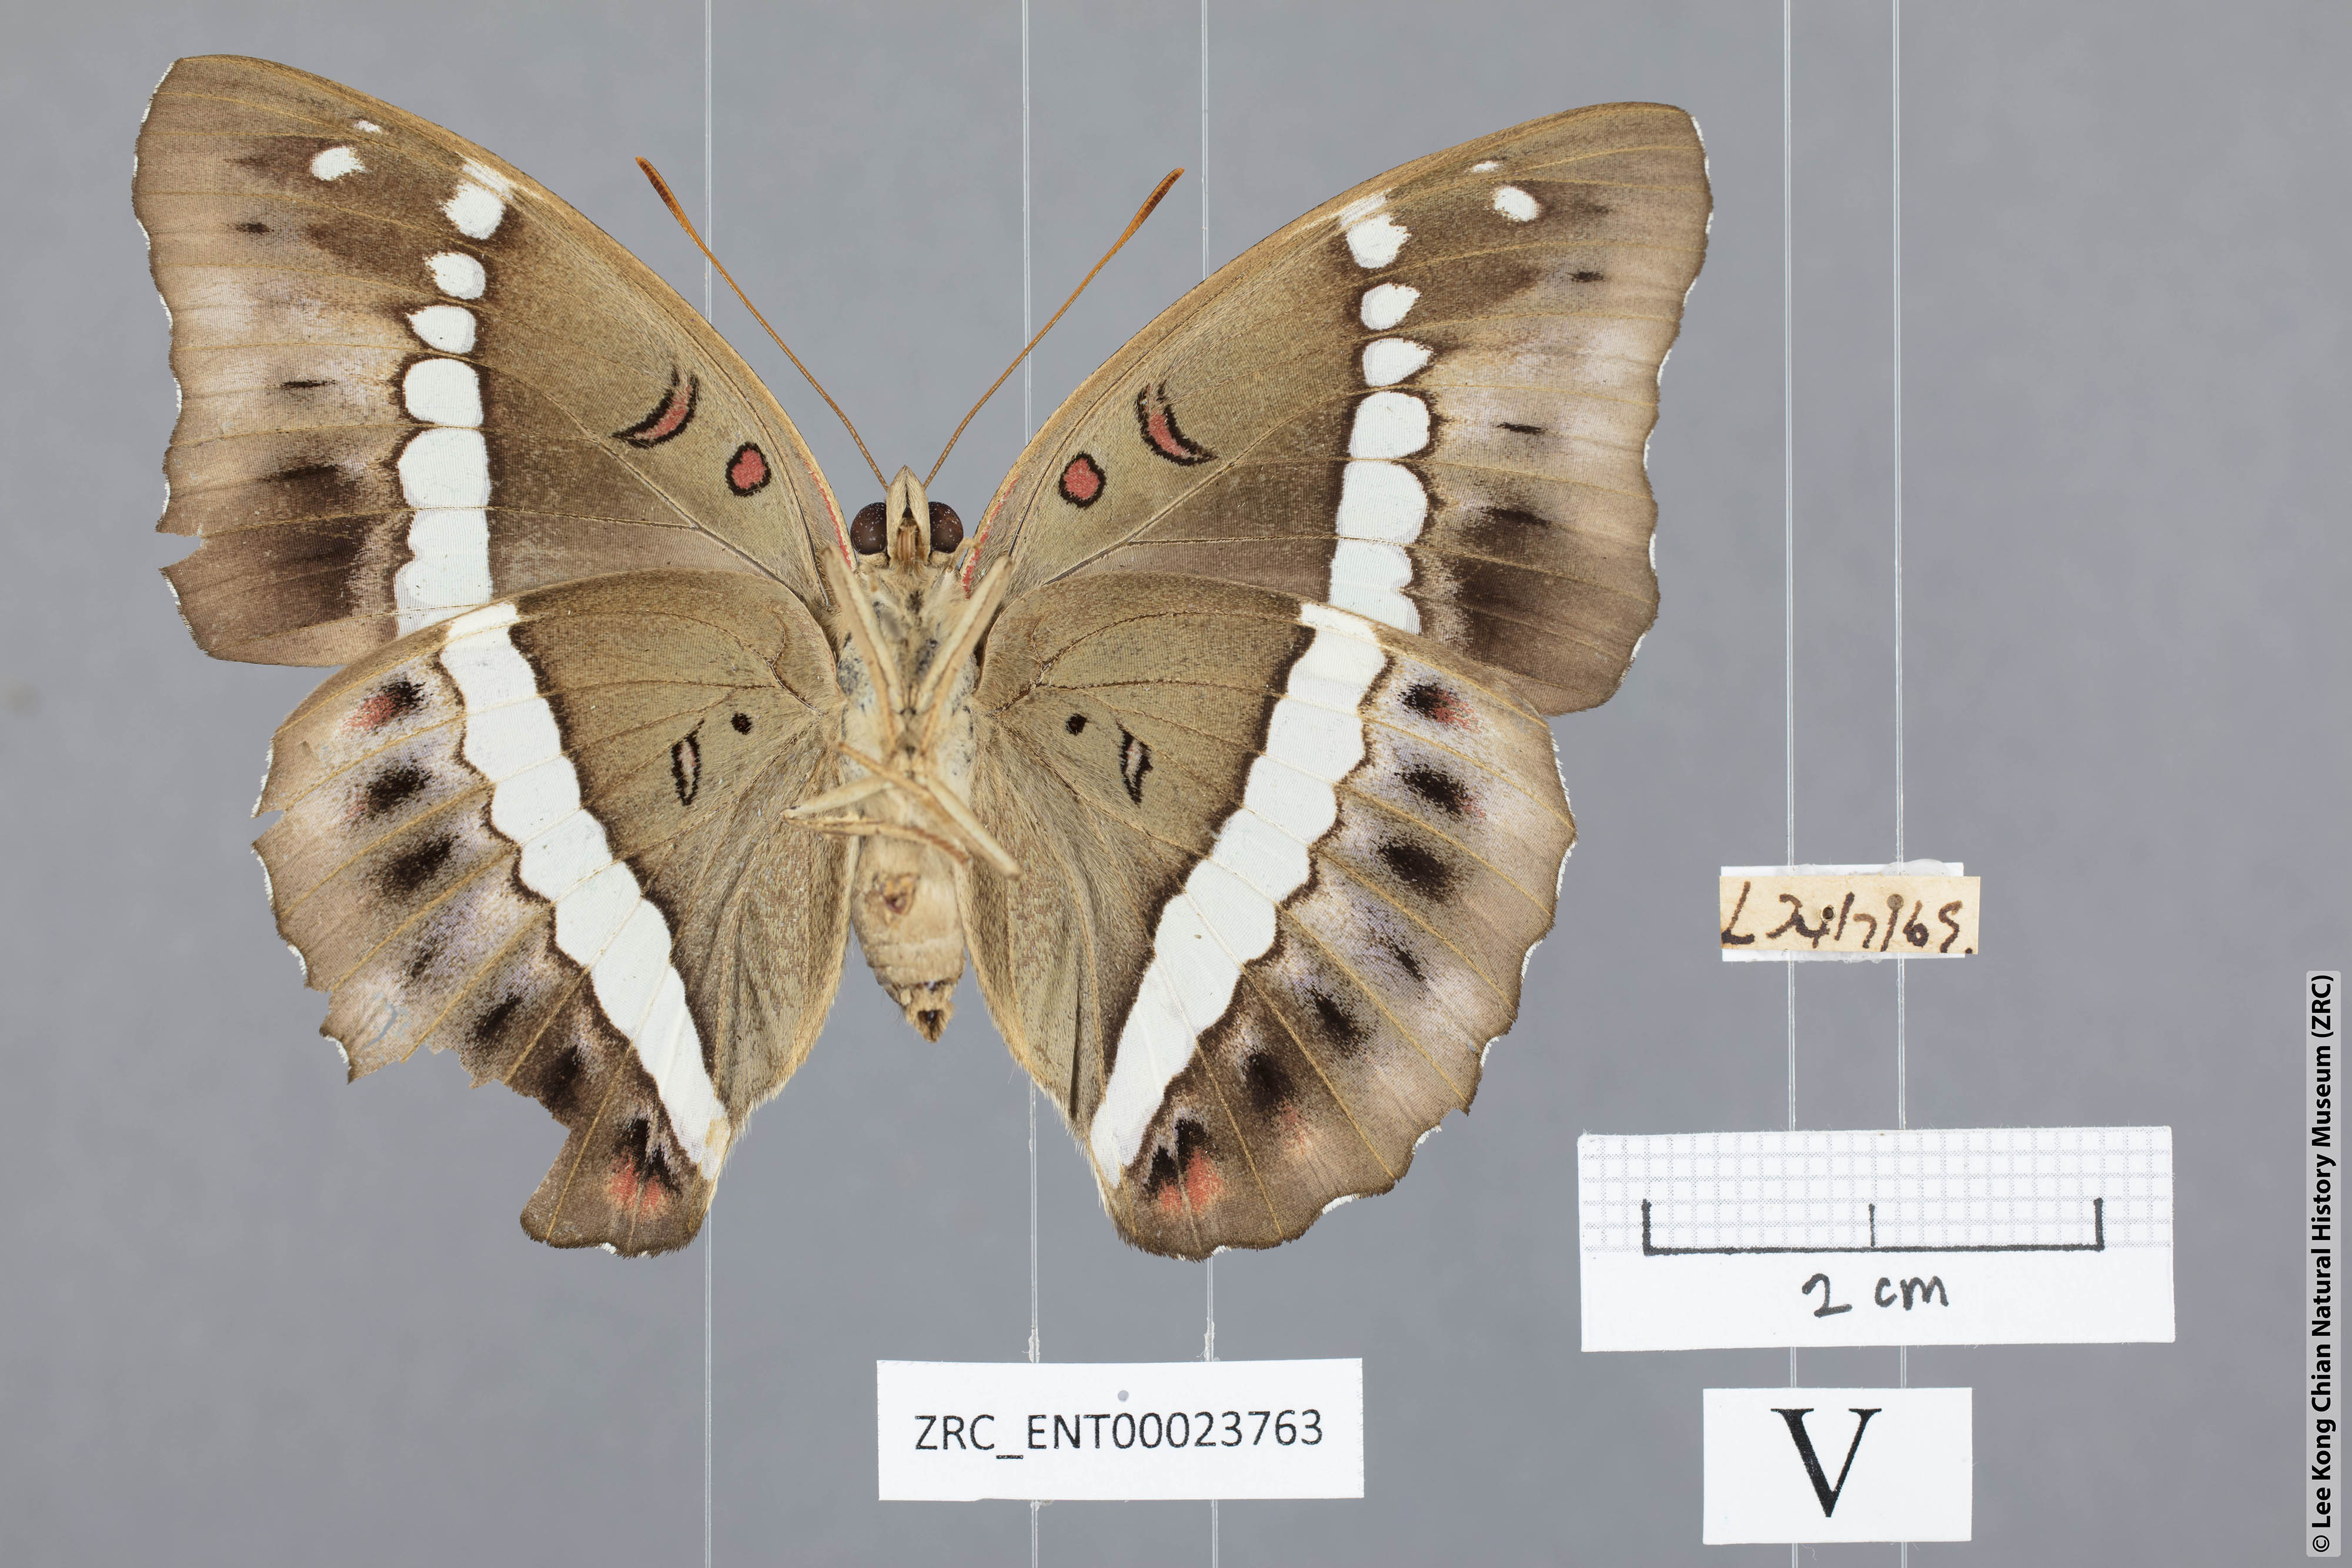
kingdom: Animalia
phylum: Arthropoda
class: Insecta
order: Lepidoptera
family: Nymphalidae
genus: Euthalia
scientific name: Euthalia Bassarona recta
